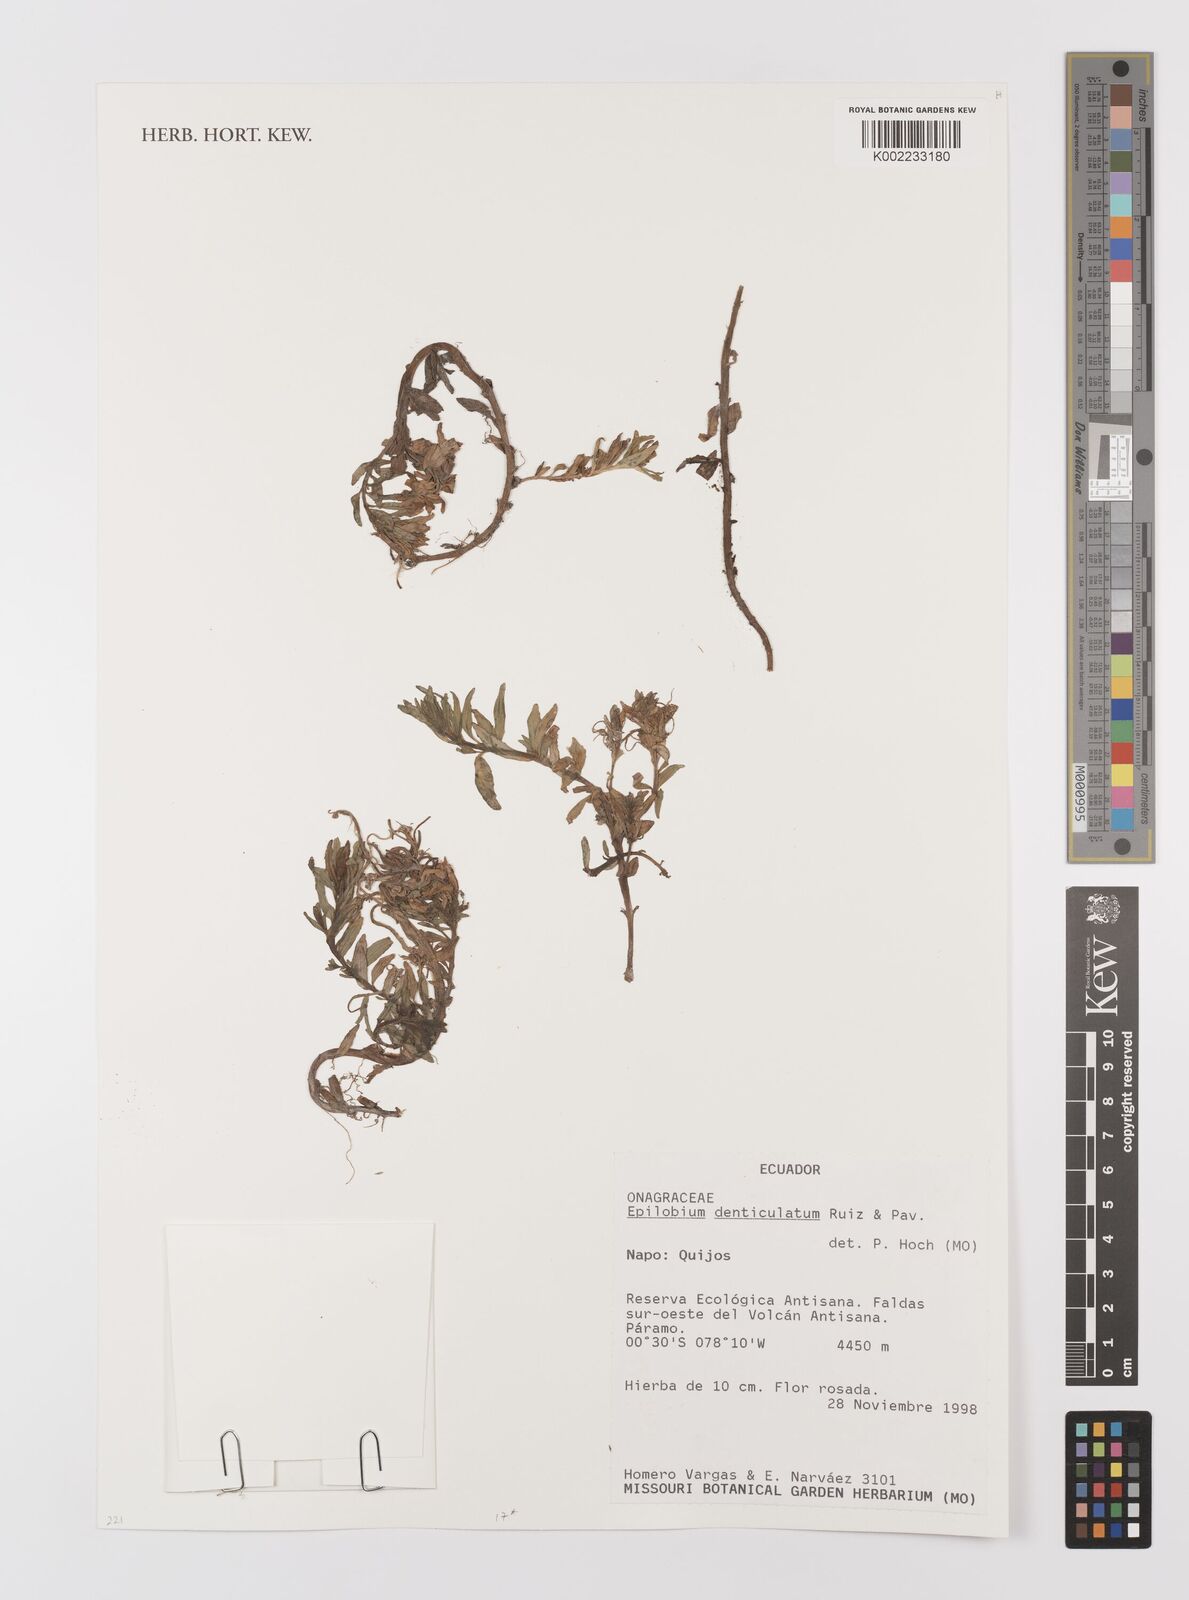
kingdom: Plantae
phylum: Tracheophyta
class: Magnoliopsida
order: Myrtales
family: Onagraceae
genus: Epilobium
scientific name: Epilobium denticulatum
